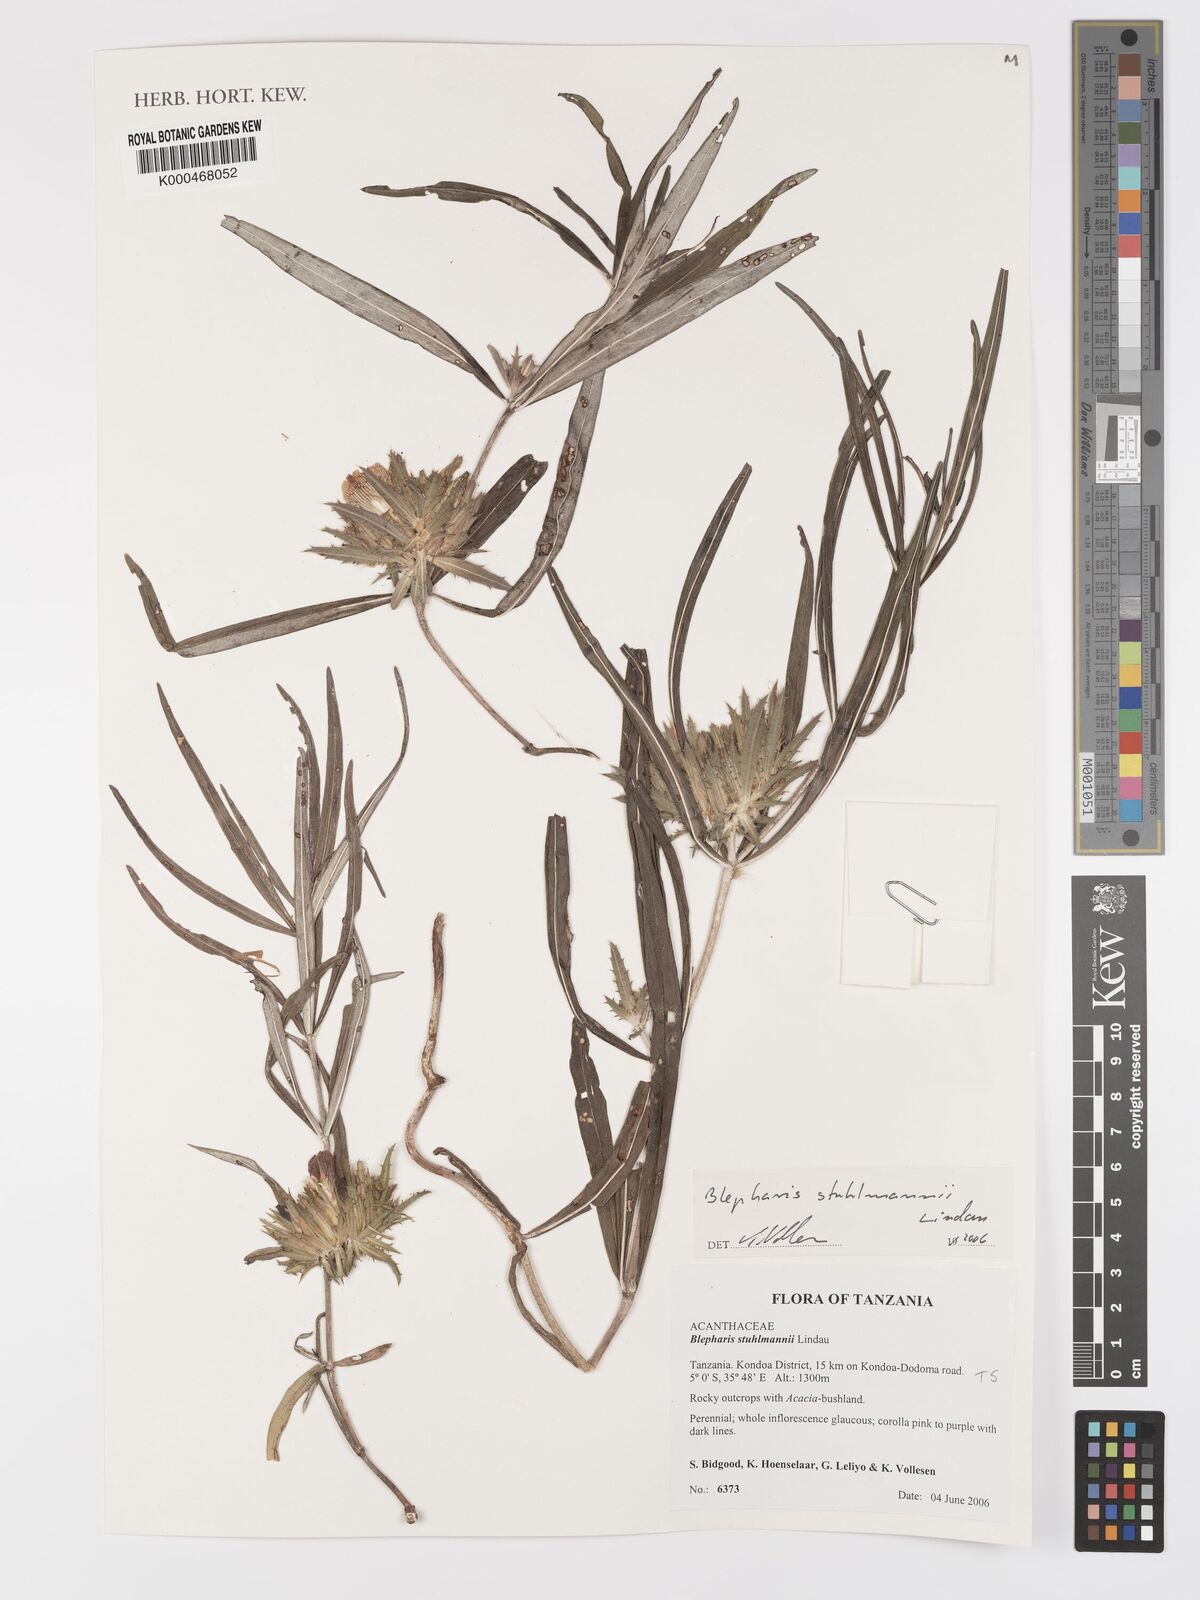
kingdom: Plantae
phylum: Tracheophyta
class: Magnoliopsida
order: Lamiales
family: Acanthaceae
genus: Blepharis
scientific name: Blepharis stuhlmannii
